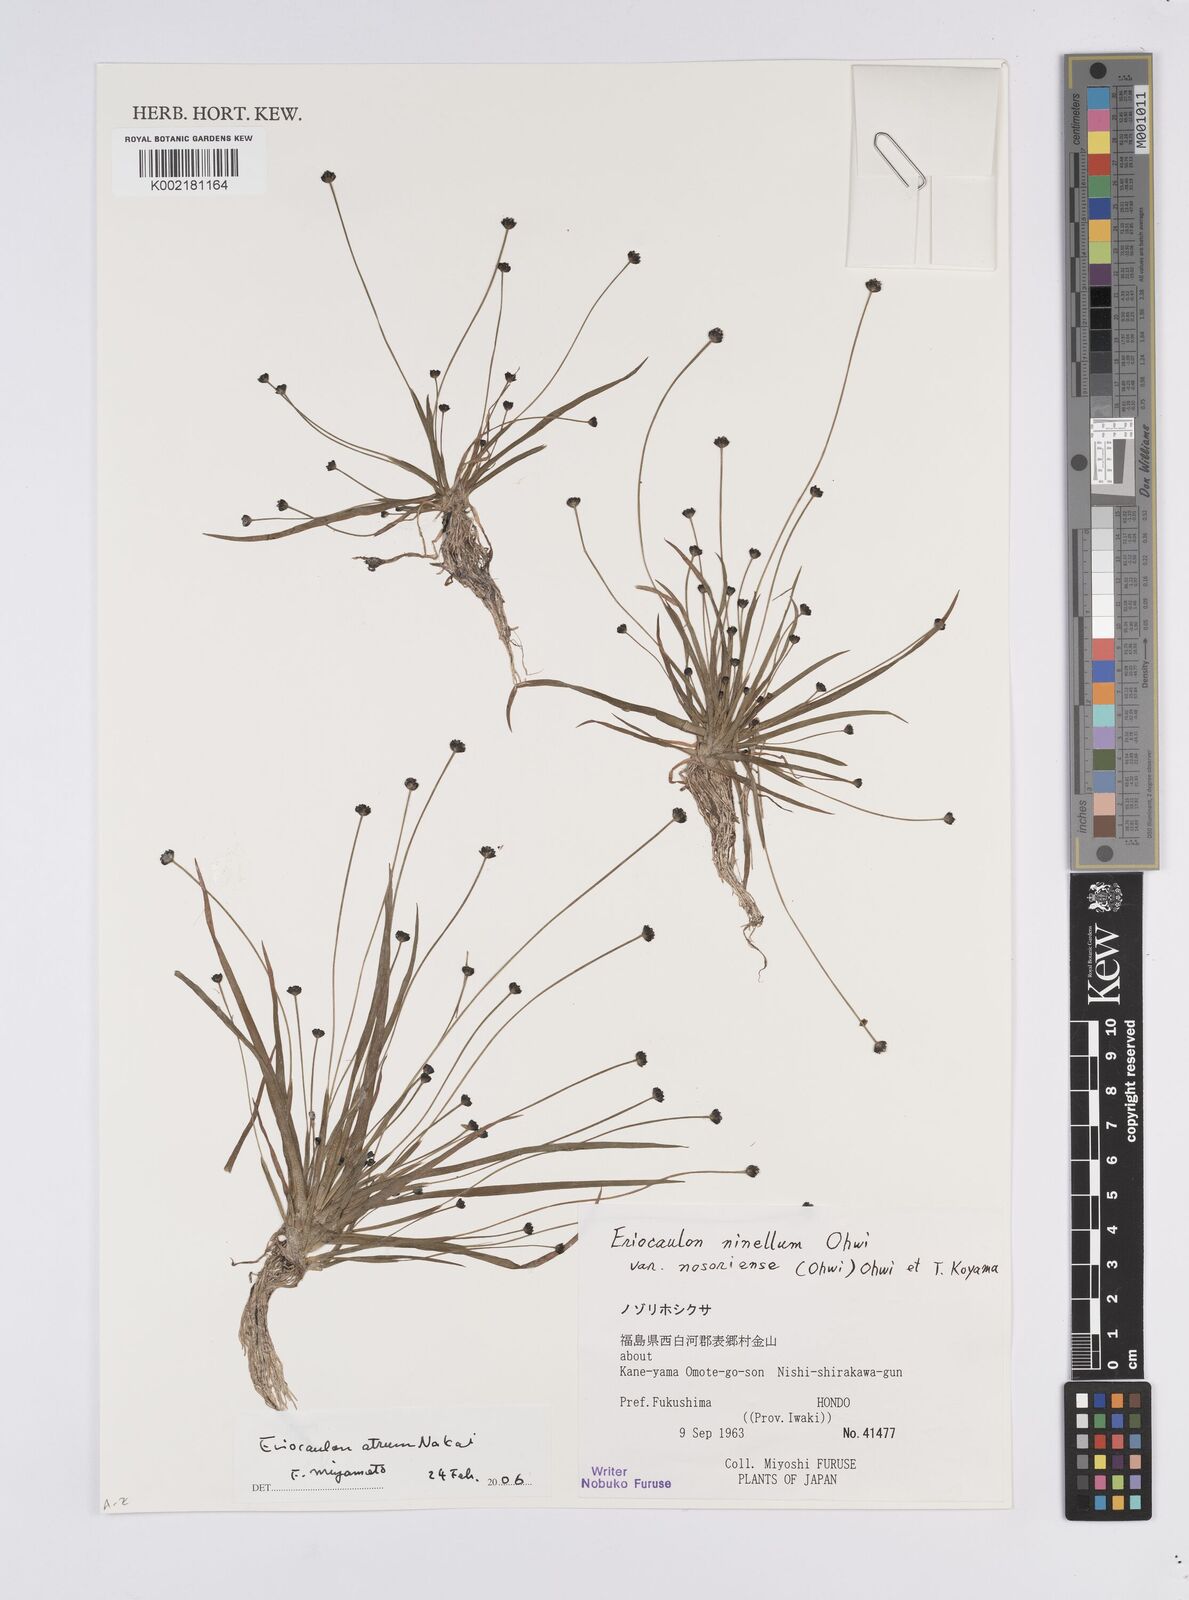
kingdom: Plantae
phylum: Tracheophyta
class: Liliopsida
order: Poales
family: Eriocaulaceae
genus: Eriocaulon
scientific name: Eriocaulon takae
